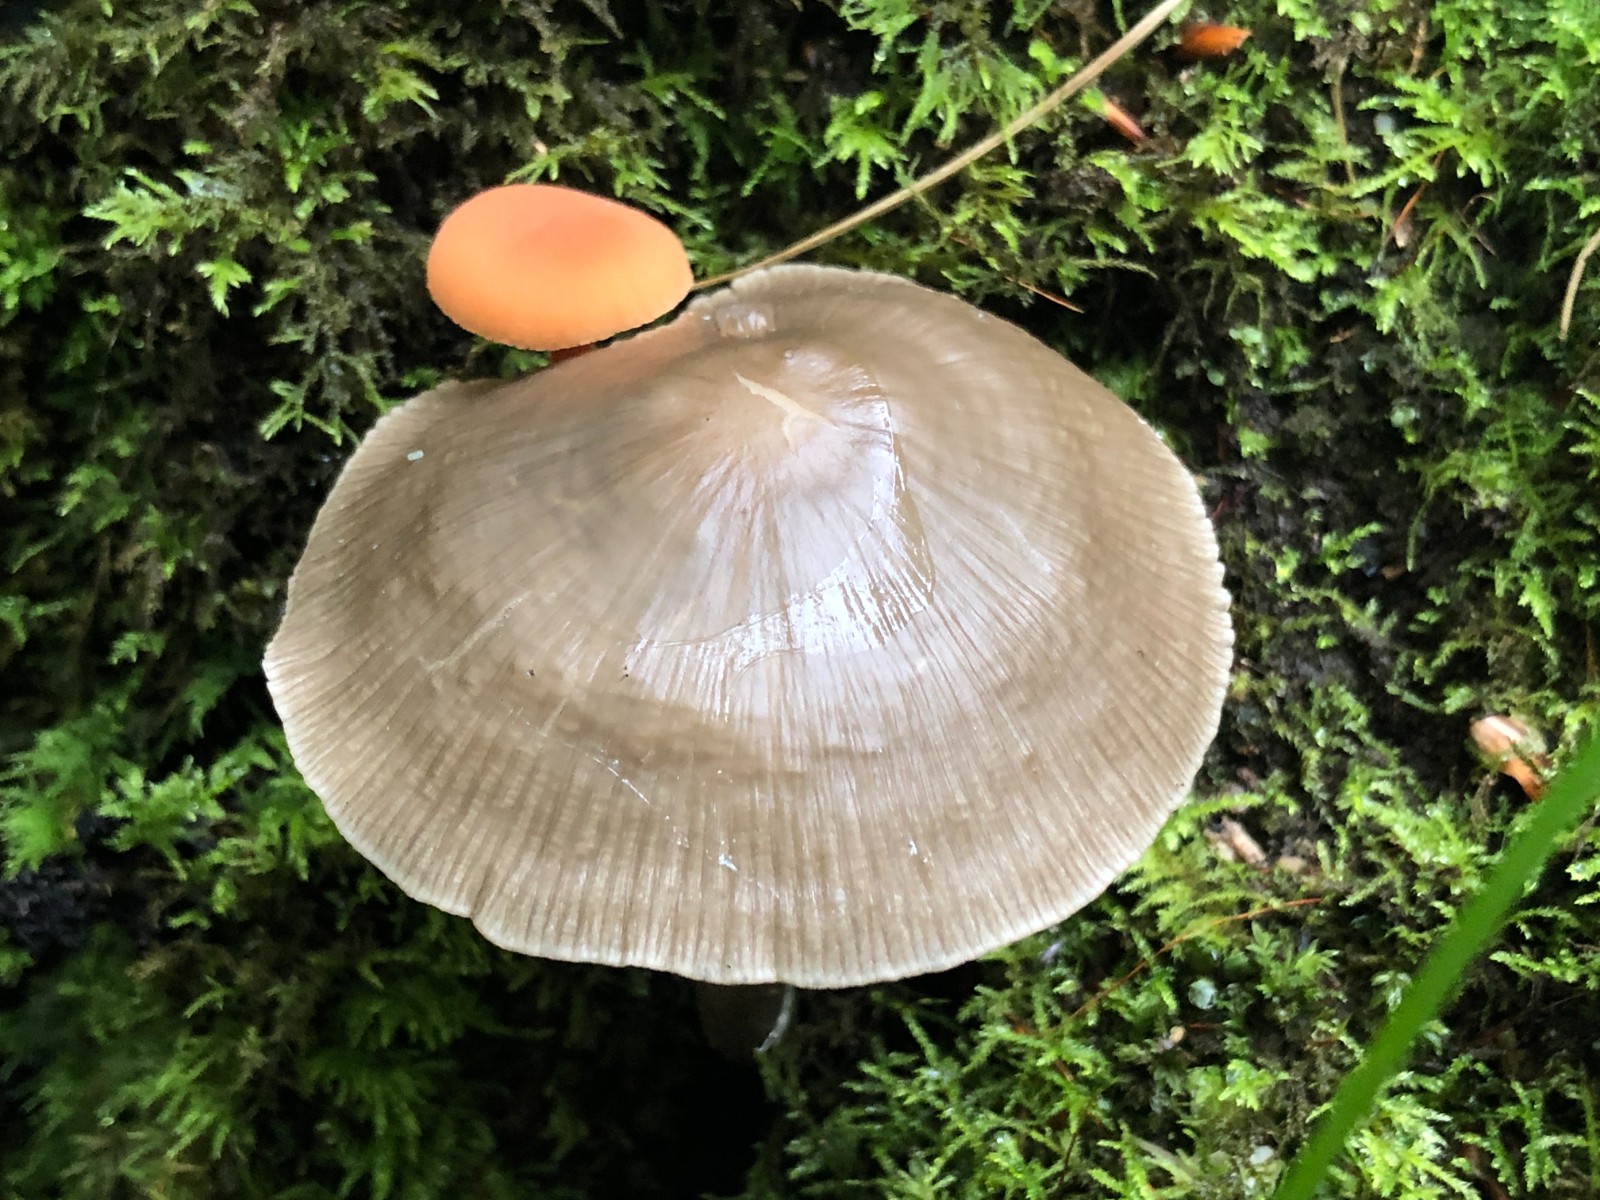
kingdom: Fungi
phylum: Basidiomycota
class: Agaricomycetes
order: Agaricales
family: Mycenaceae
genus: Mycena
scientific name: Mycena galericulata
